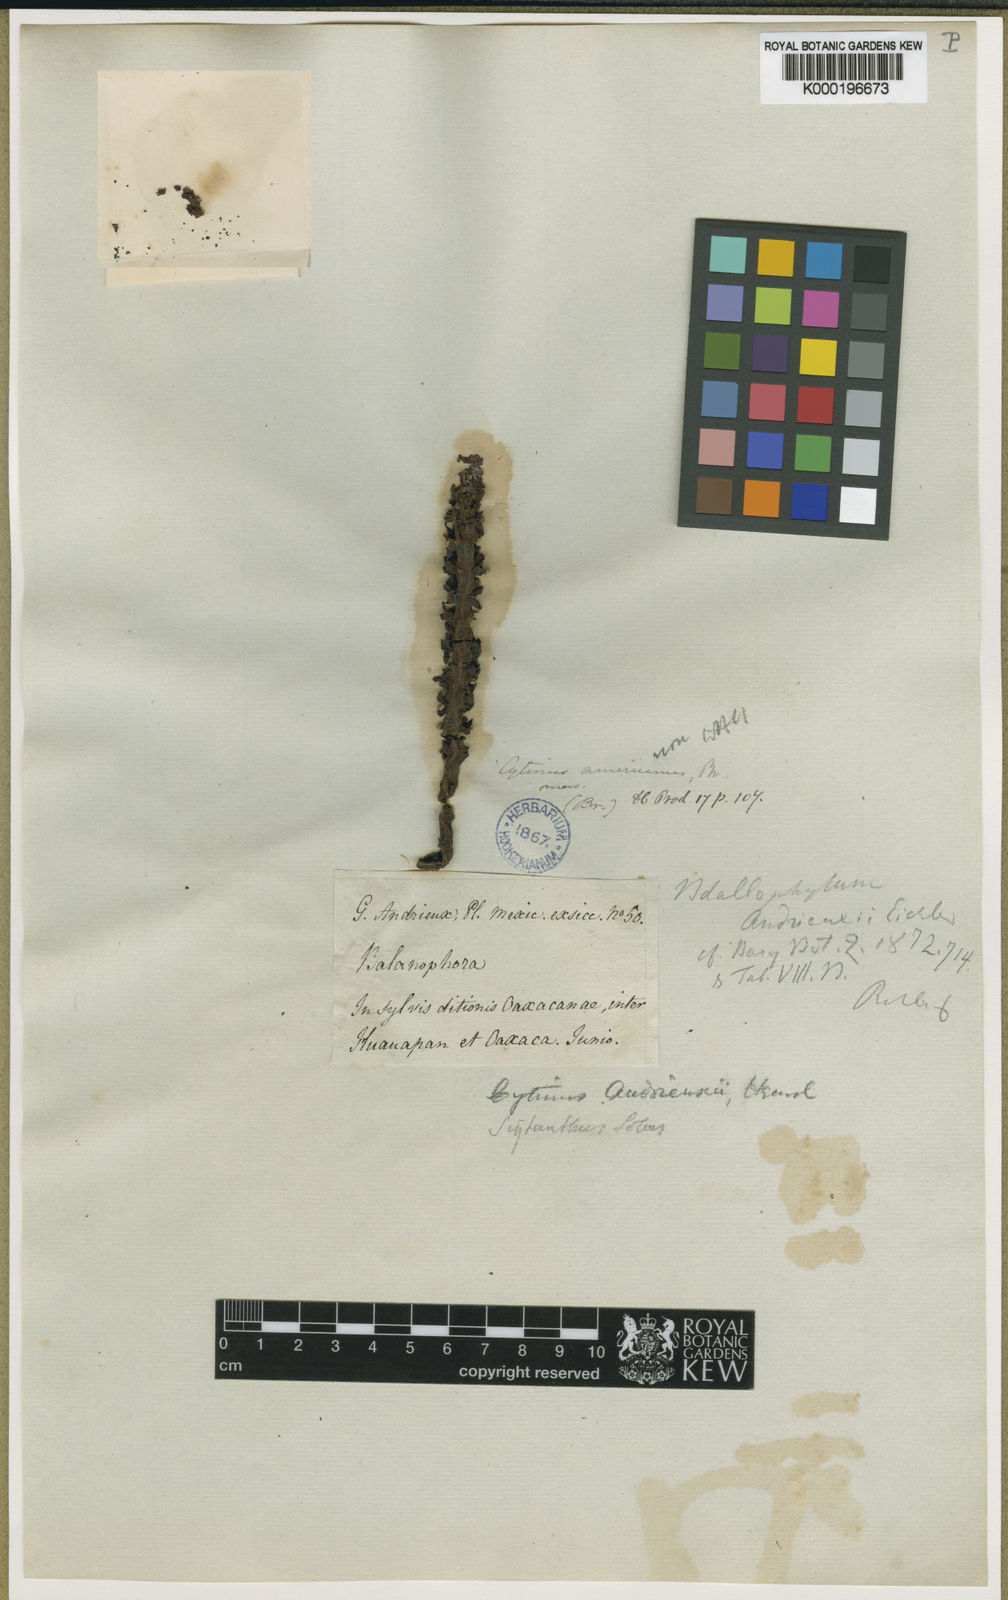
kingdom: Plantae
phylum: Tracheophyta
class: Magnoliopsida
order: Malvales
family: Cytinaceae
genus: Bdallophyton
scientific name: Bdallophyton andrieuxii
